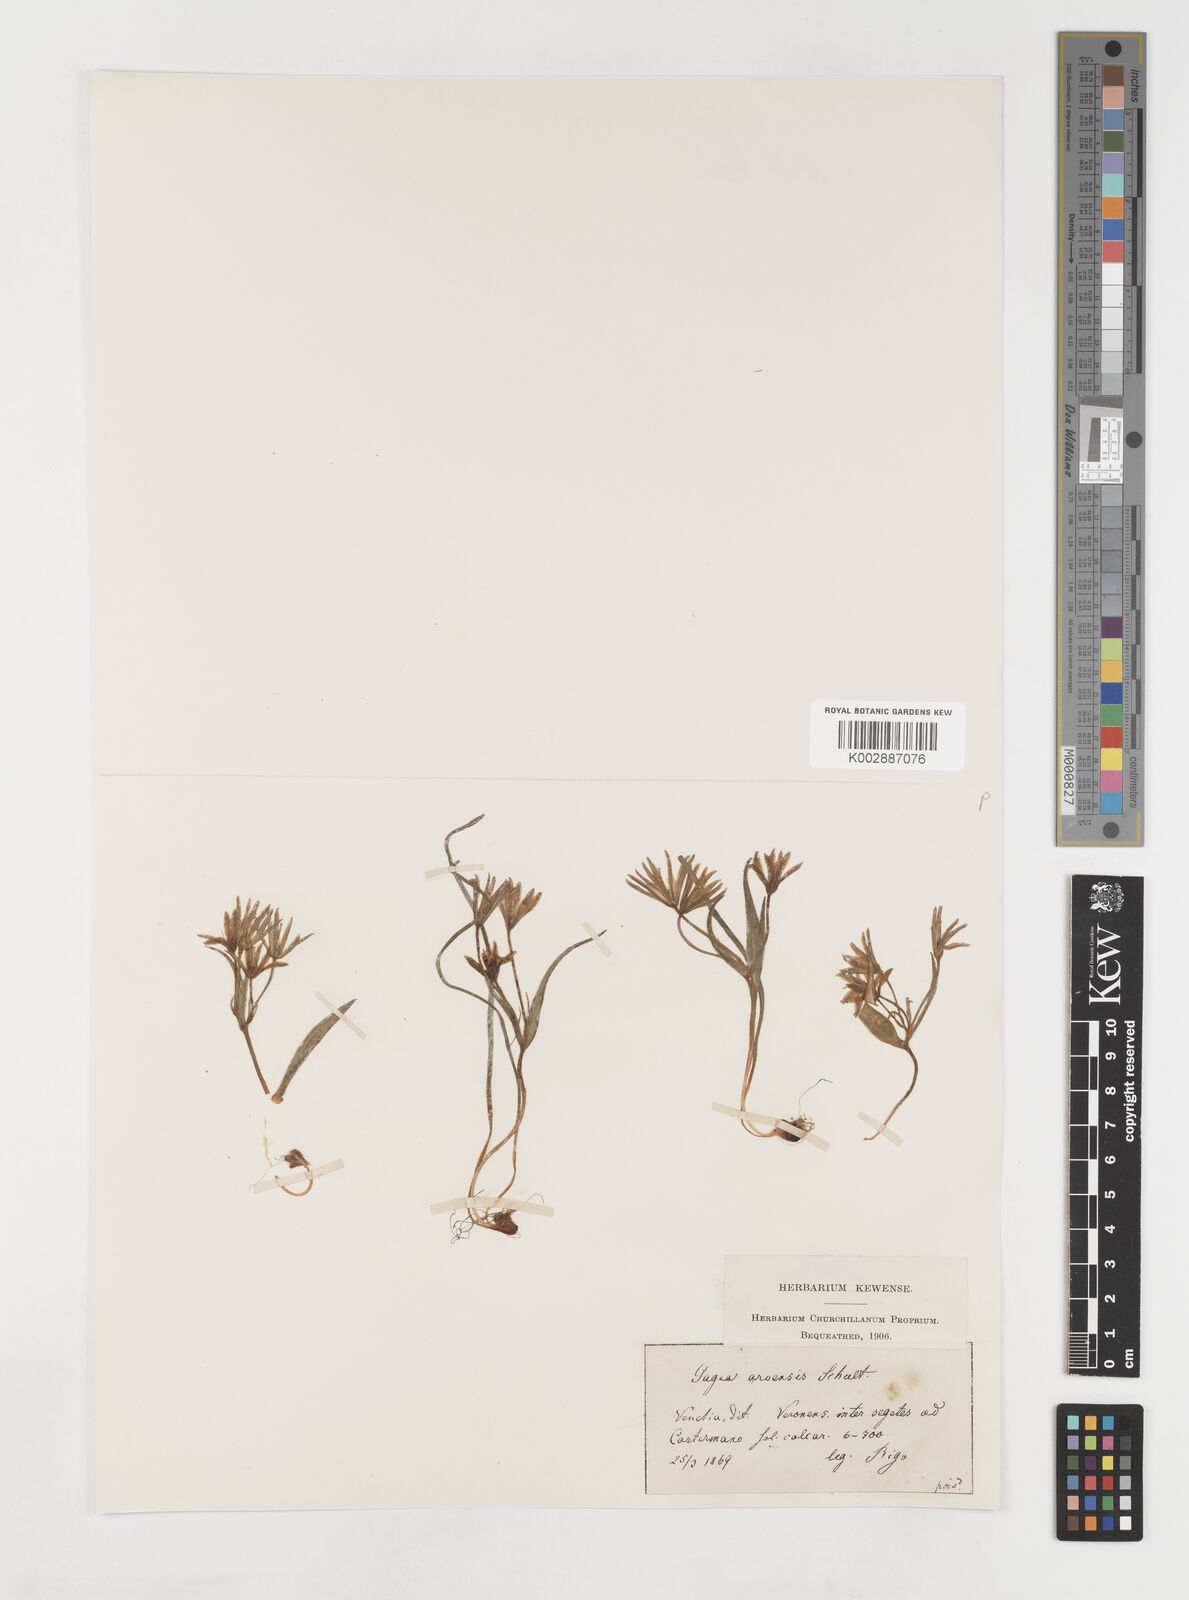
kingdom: Plantae
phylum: Tracheophyta
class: Liliopsida
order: Liliales
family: Liliaceae
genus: Gagea
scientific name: Gagea minima
